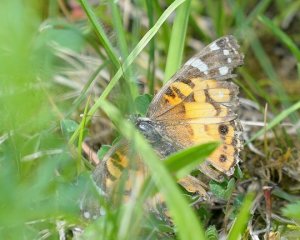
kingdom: Animalia
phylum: Arthropoda
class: Insecta
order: Lepidoptera
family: Nymphalidae
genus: Vanessa
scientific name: Vanessa virginiensis
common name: American Lady
